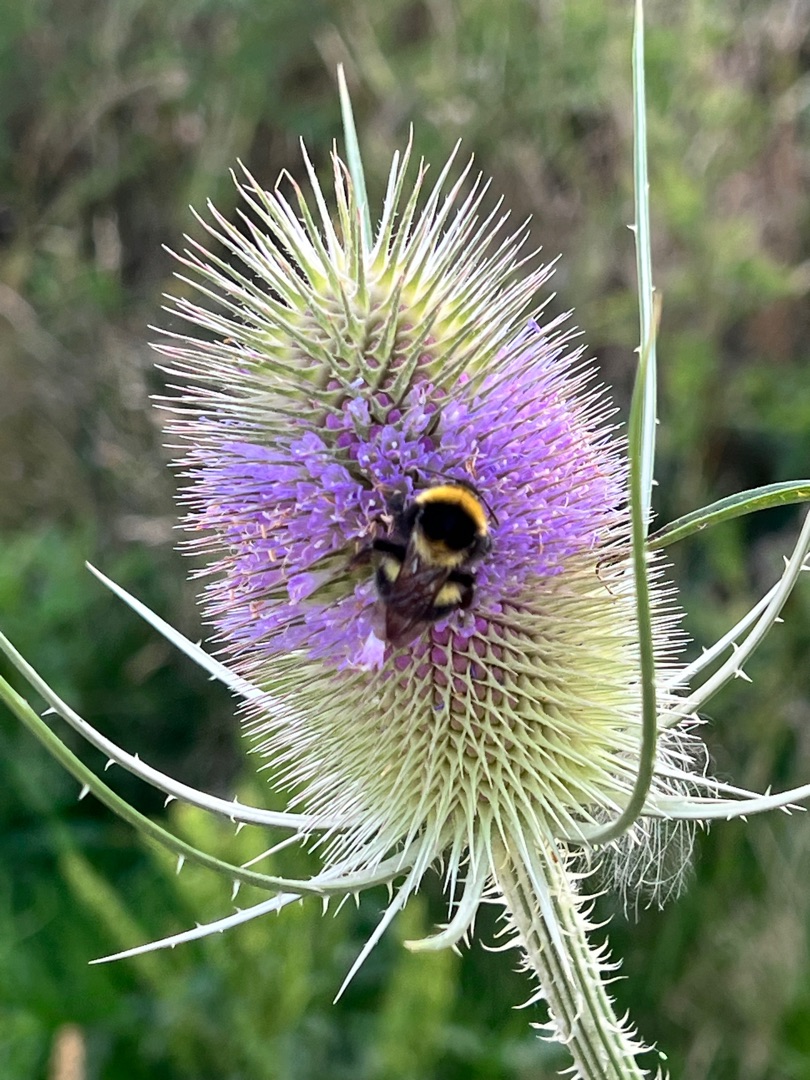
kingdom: Plantae
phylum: Tracheophyta
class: Magnoliopsida
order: Dipsacales
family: Caprifoliaceae
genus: Dipsacus
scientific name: Dipsacus fullonum
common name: Gærde-kartebolle
